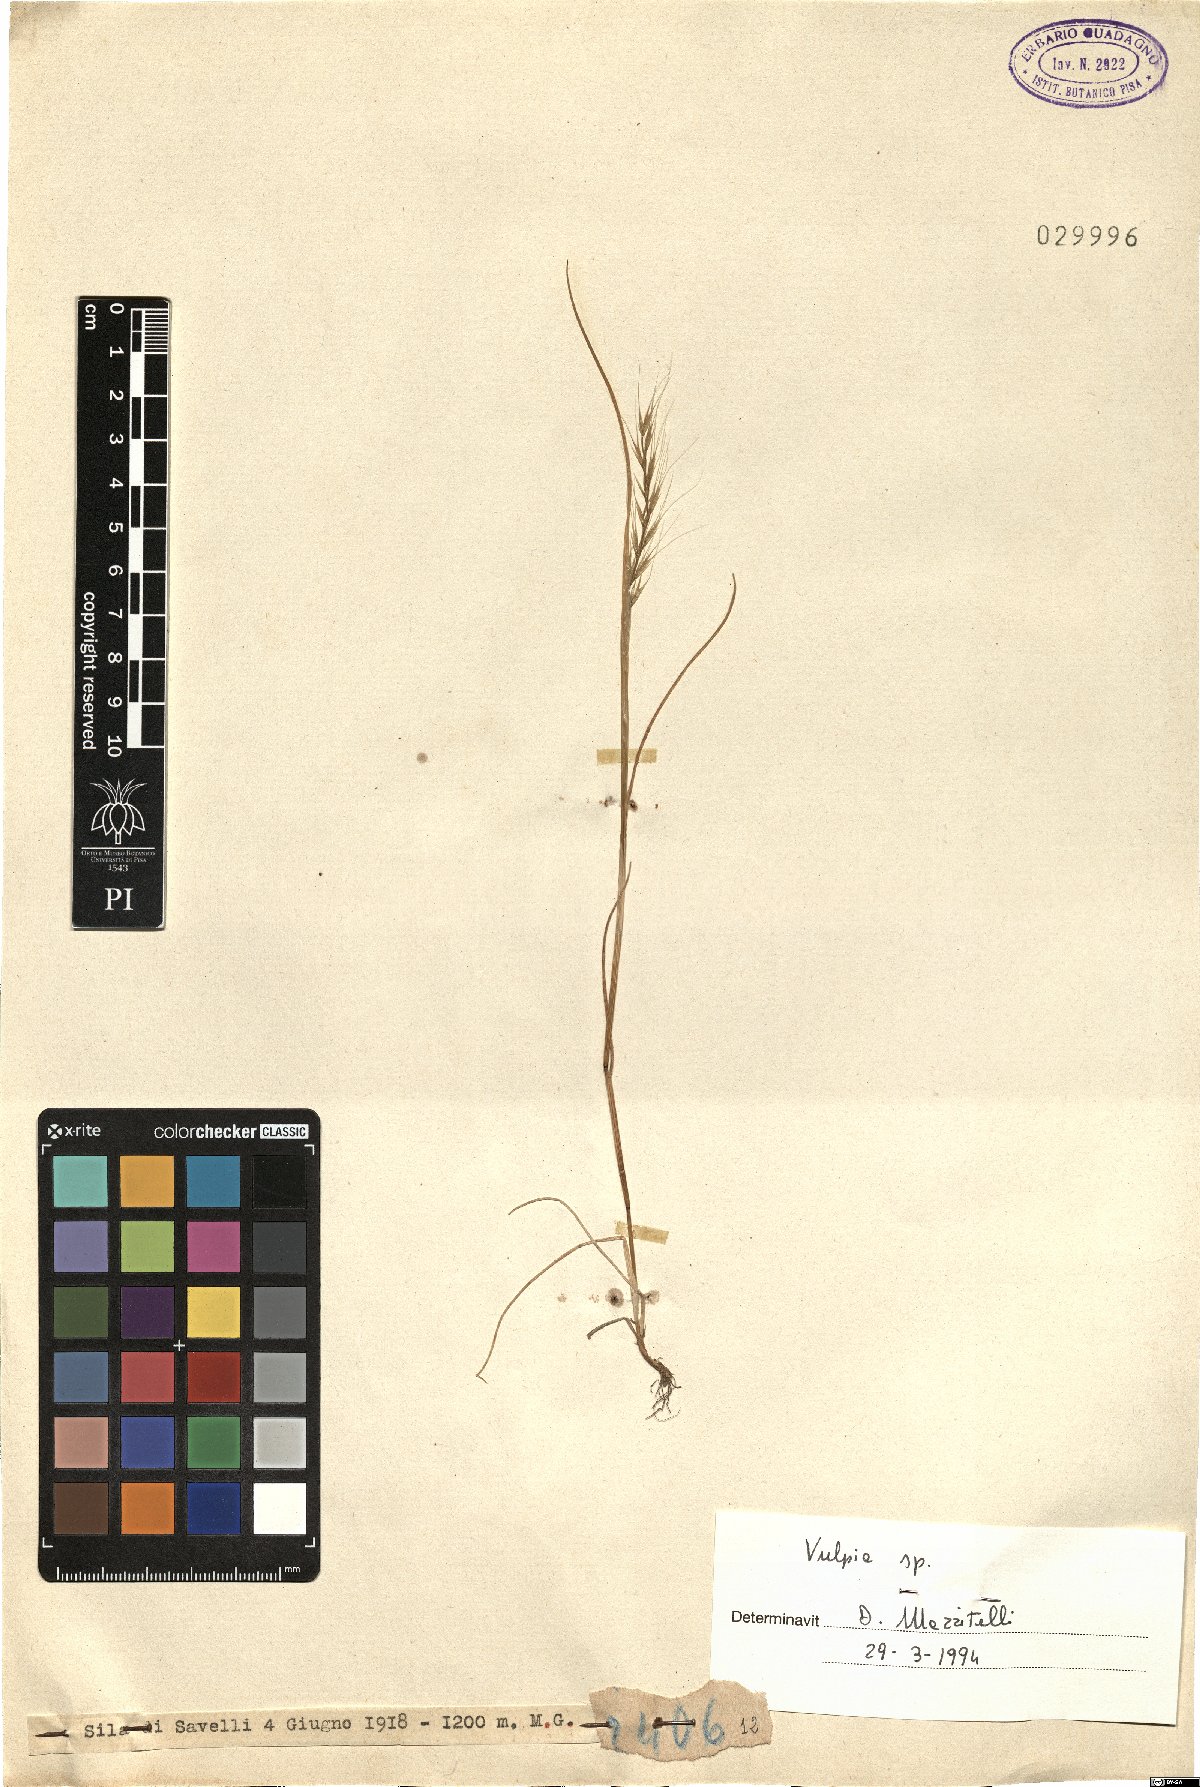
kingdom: Plantae
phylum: Tracheophyta
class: Liliopsida
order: Poales
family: Poaceae
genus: Festuca
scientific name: Festuca
